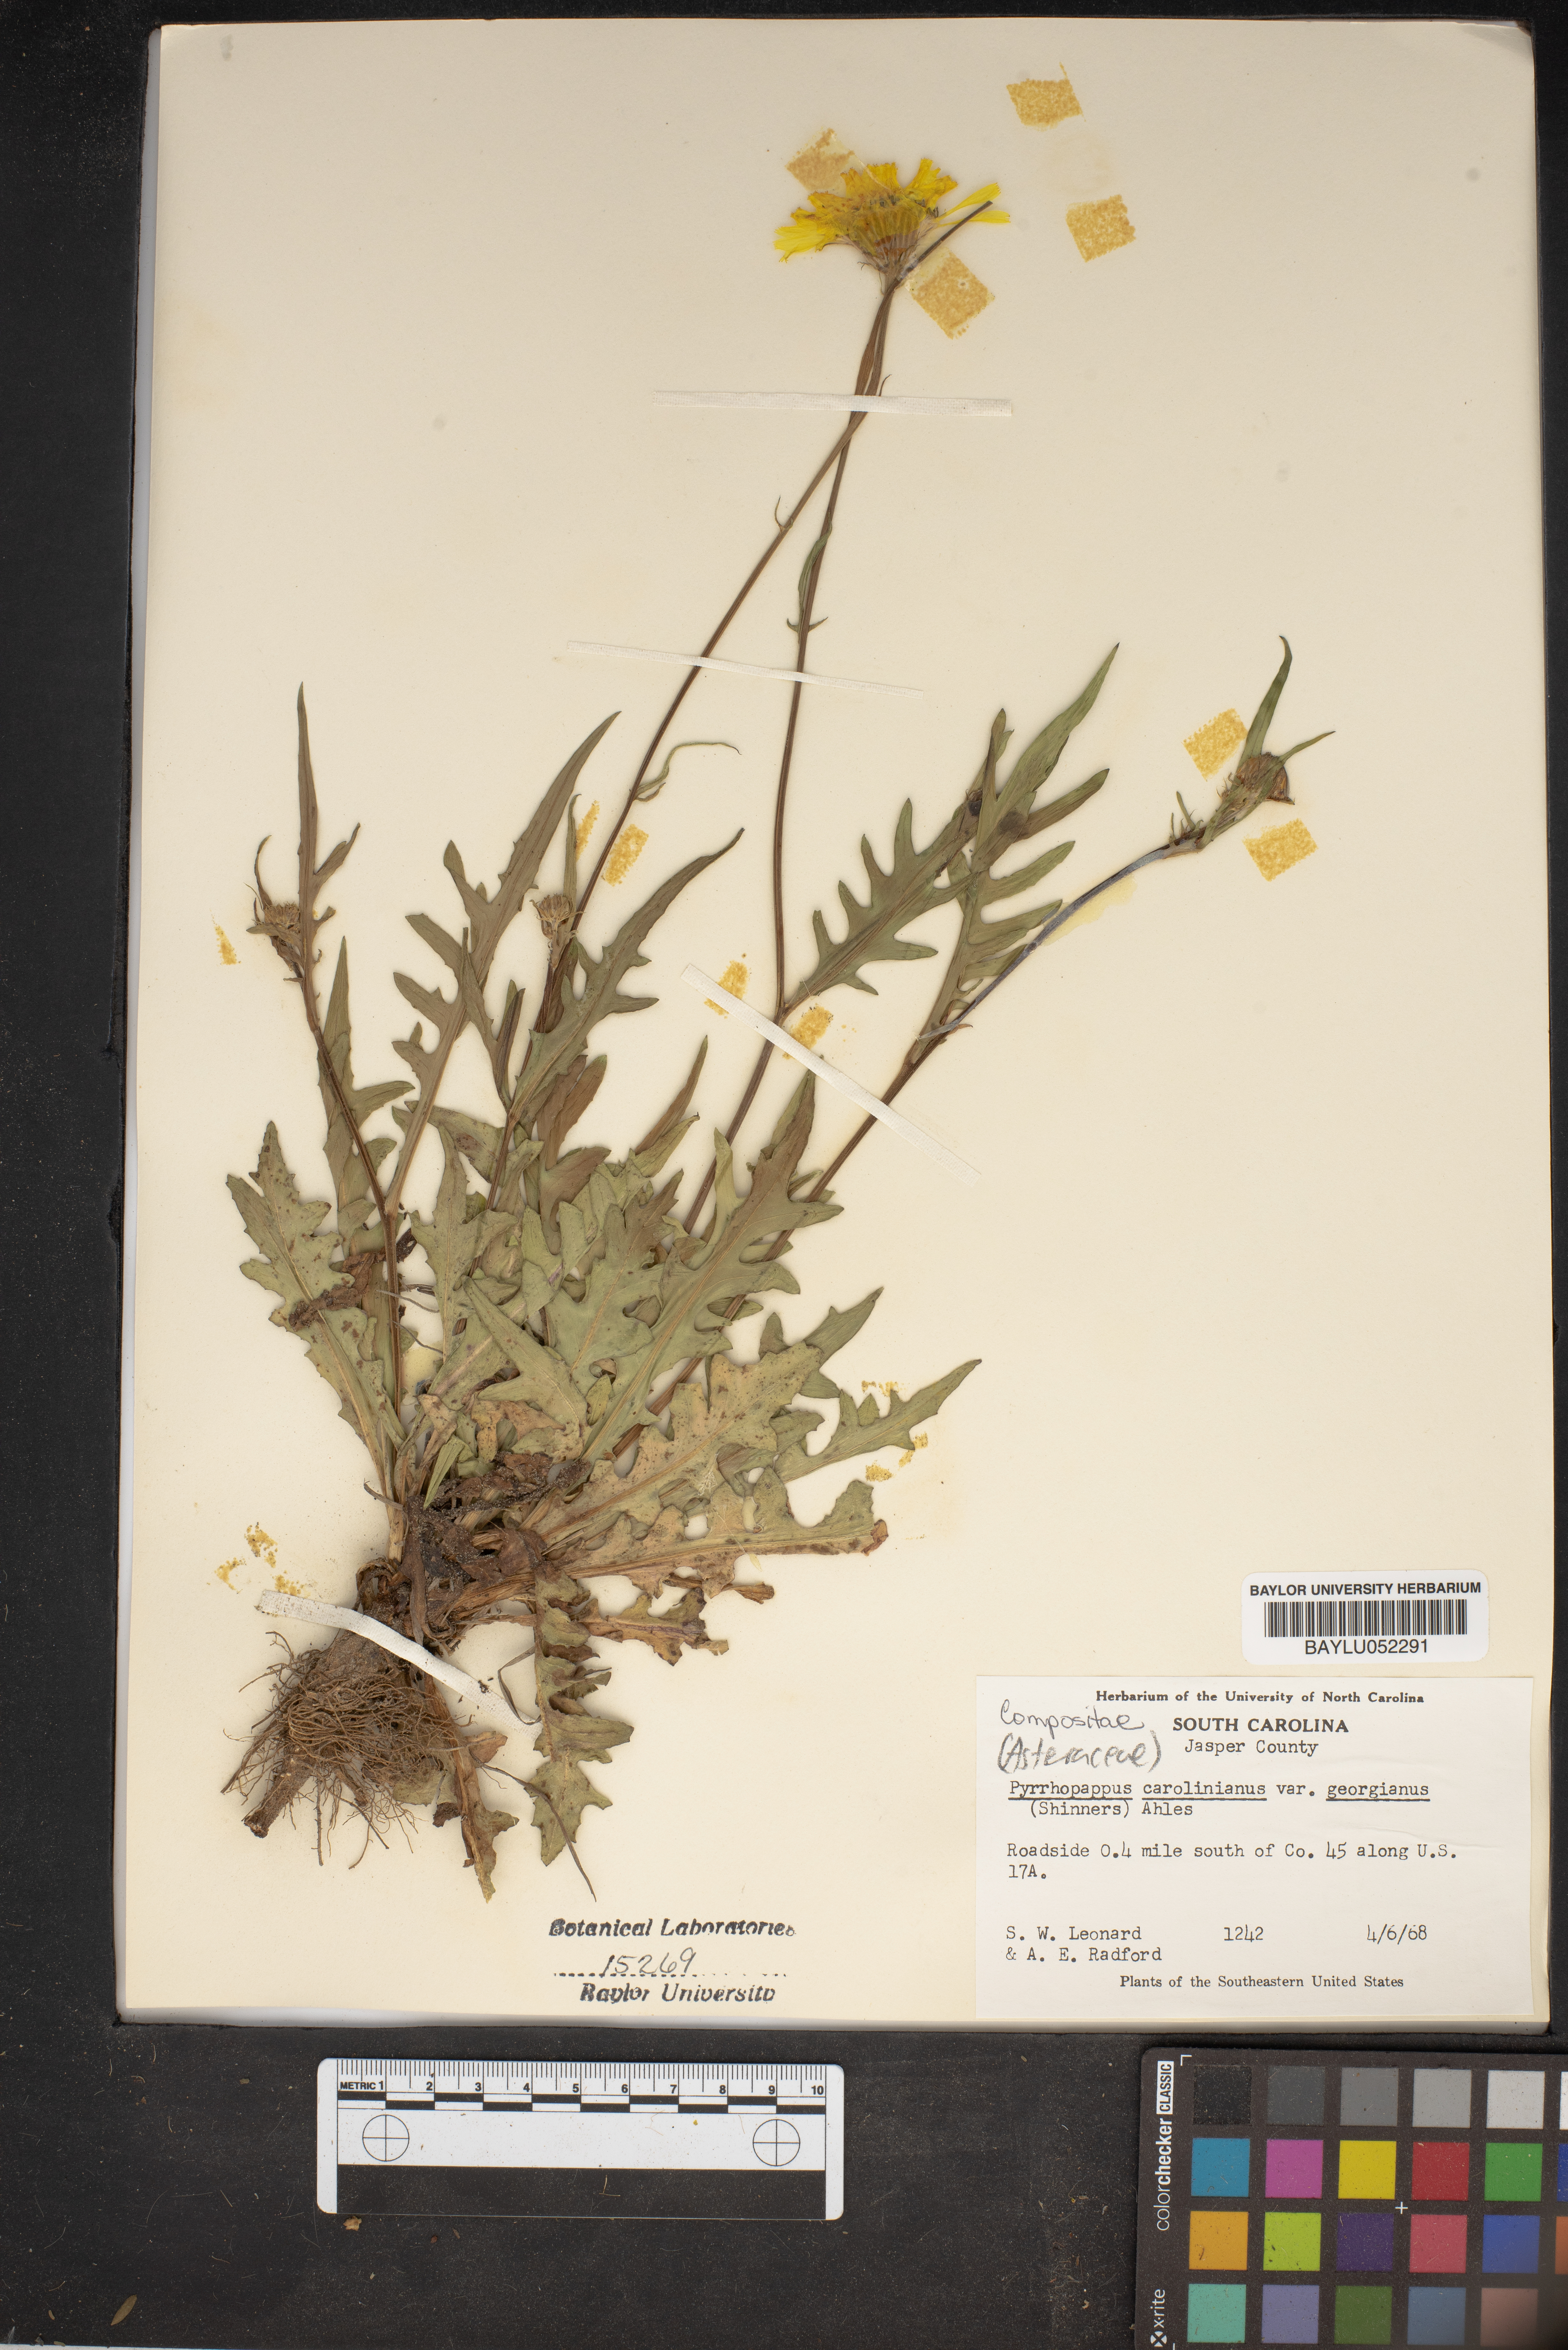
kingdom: Plantae
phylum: Tracheophyta
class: Magnoliopsida
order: Asterales
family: Asteraceae
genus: Pyrrhopappus
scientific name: Pyrrhopappus carolinianus
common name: Carolina desert-chicory
